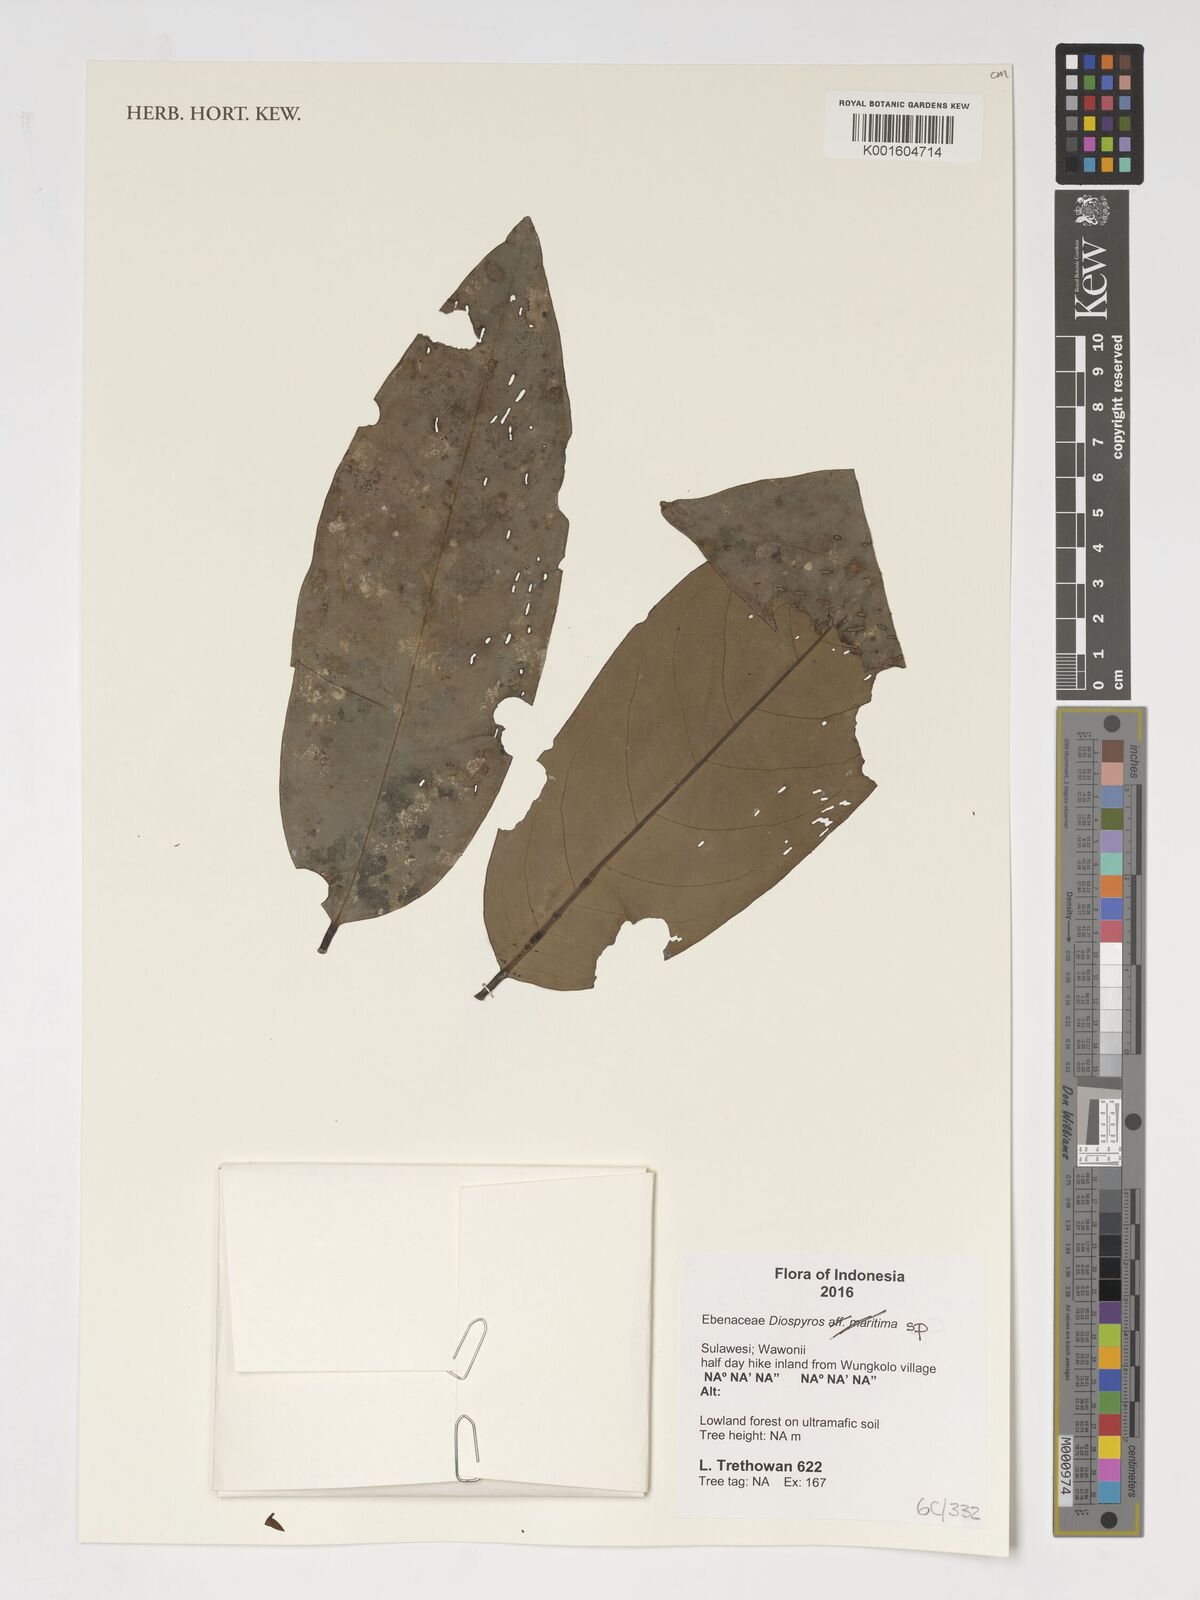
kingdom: Plantae
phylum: Tracheophyta
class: Magnoliopsida
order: Ericales
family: Ebenaceae
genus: Diospyros
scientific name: Diospyros
